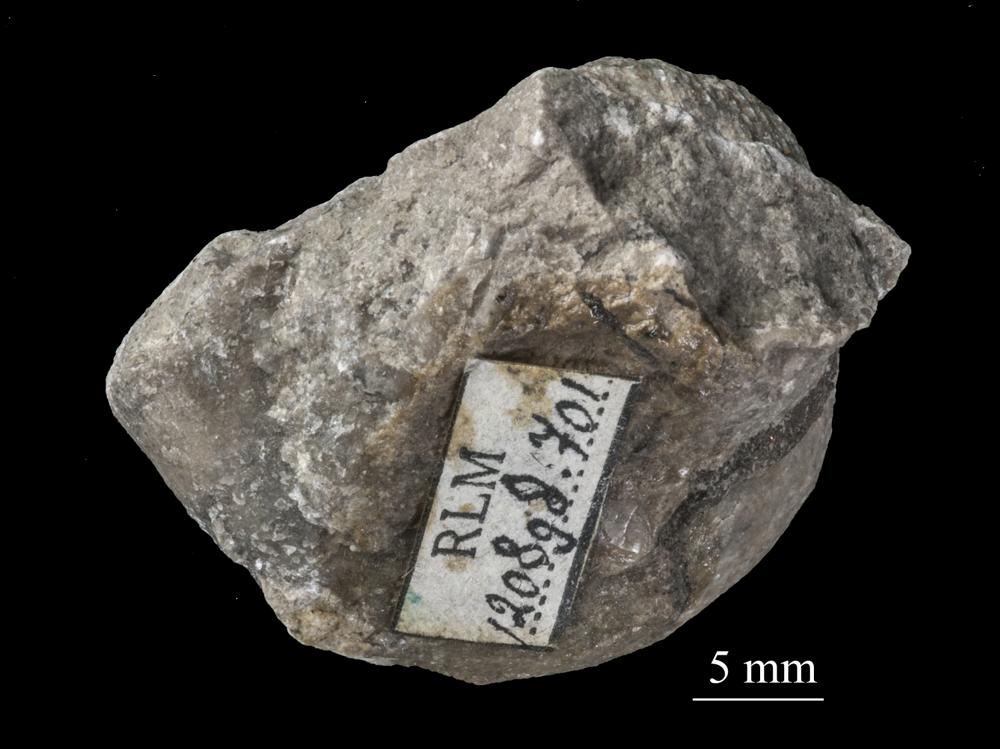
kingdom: Animalia
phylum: Mollusca
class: Gastropoda
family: Holopeidae
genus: Holopea
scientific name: Holopea
